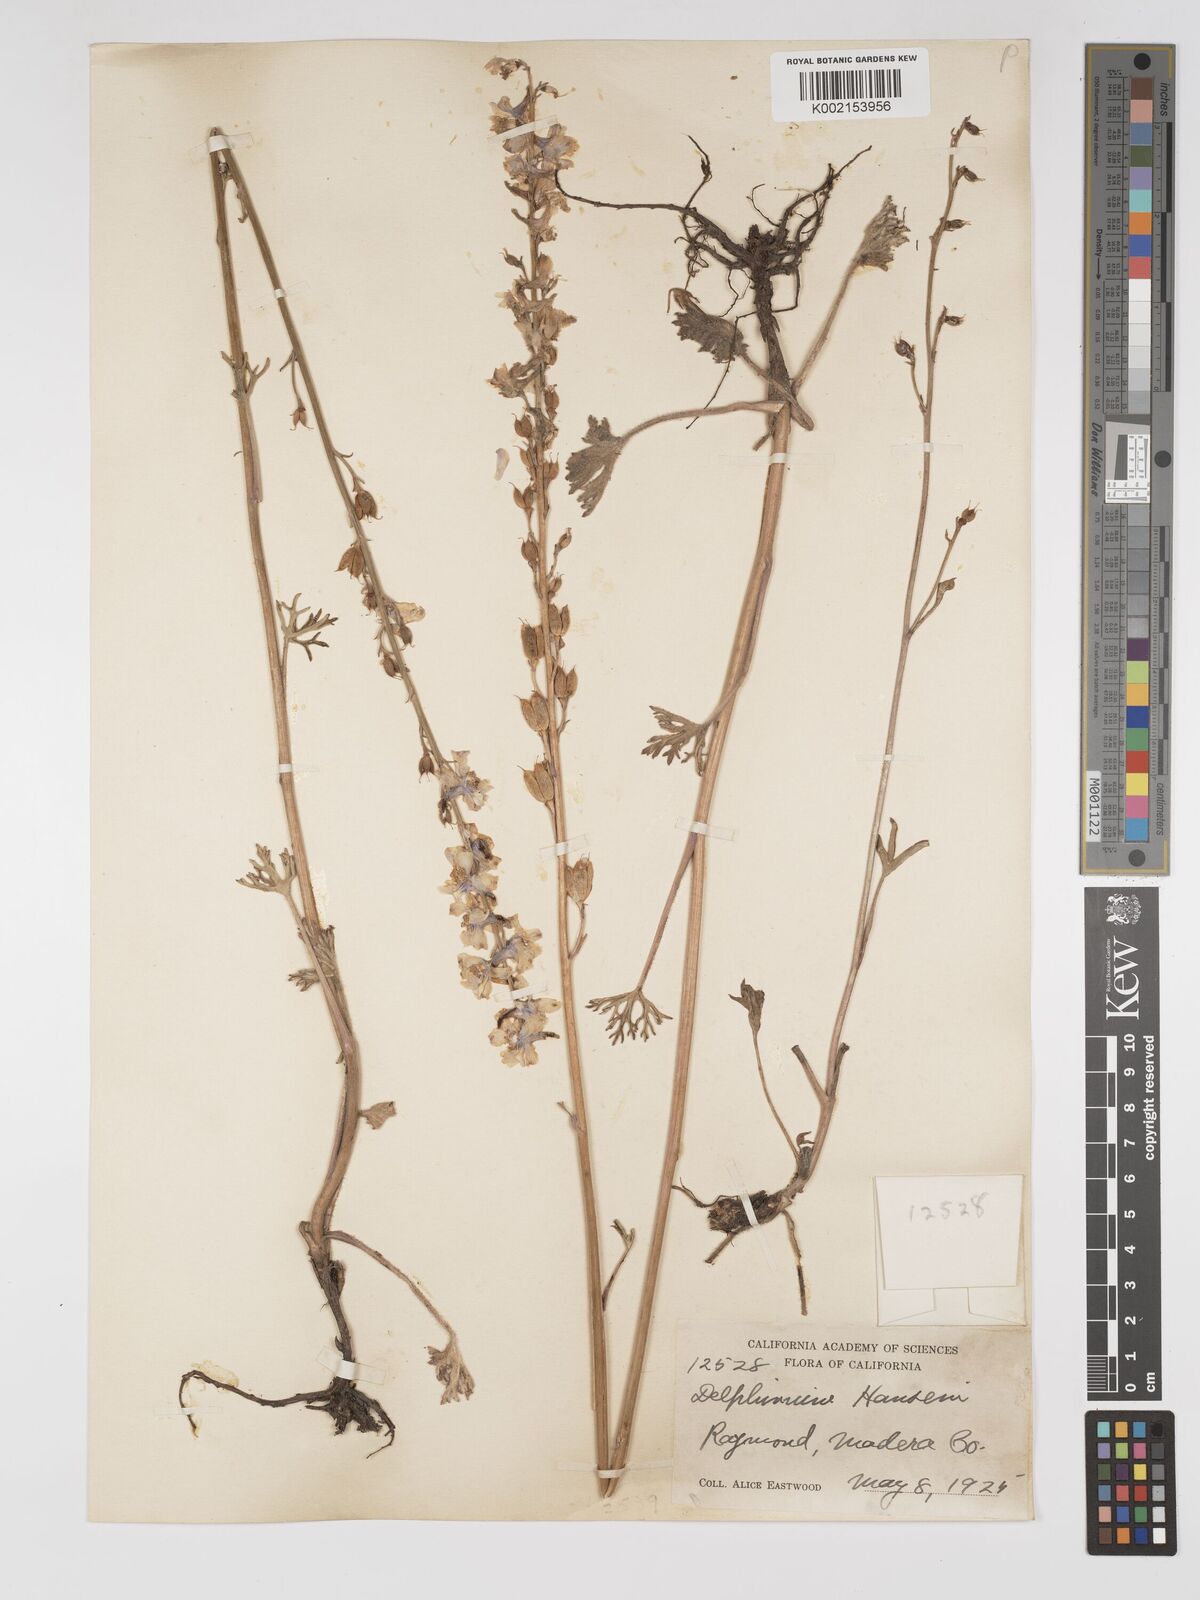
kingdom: Plantae
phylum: Tracheophyta
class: Magnoliopsida
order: Ranunculales
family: Ranunculaceae
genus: Delphinium
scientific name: Delphinium hansenii
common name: Hansen's larkspur
